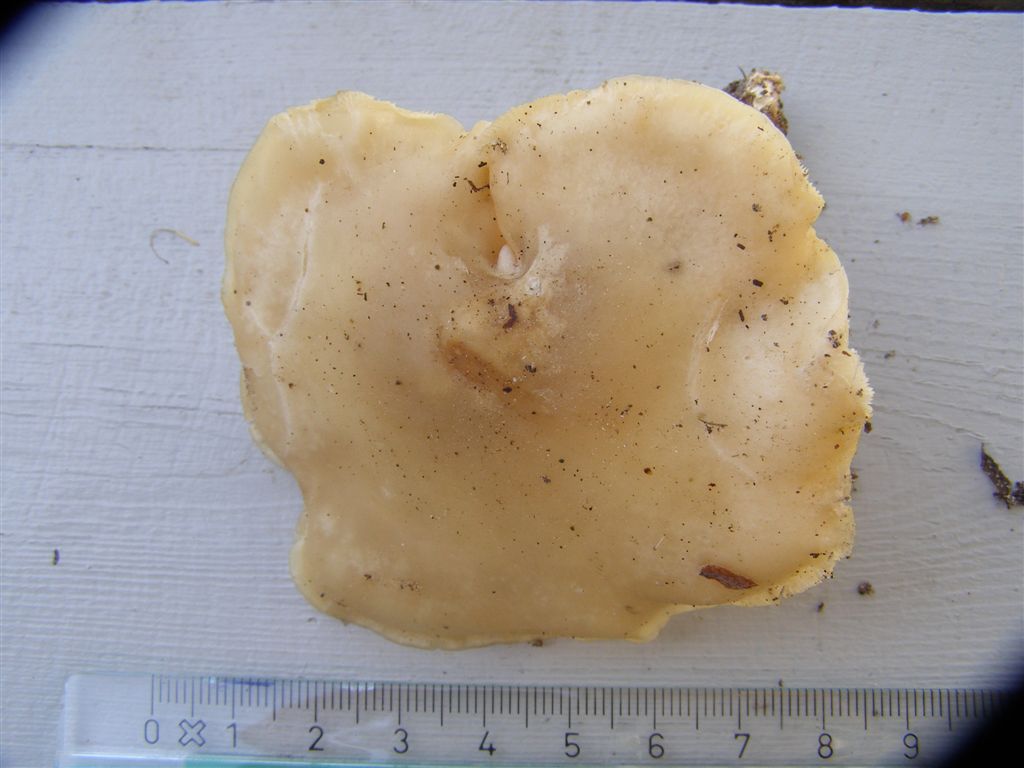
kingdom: Fungi
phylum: Basidiomycota
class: Agaricomycetes
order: Agaricales
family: Lyophyllaceae
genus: Calocybe
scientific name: Calocybe gambosa
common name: vårmusseron
